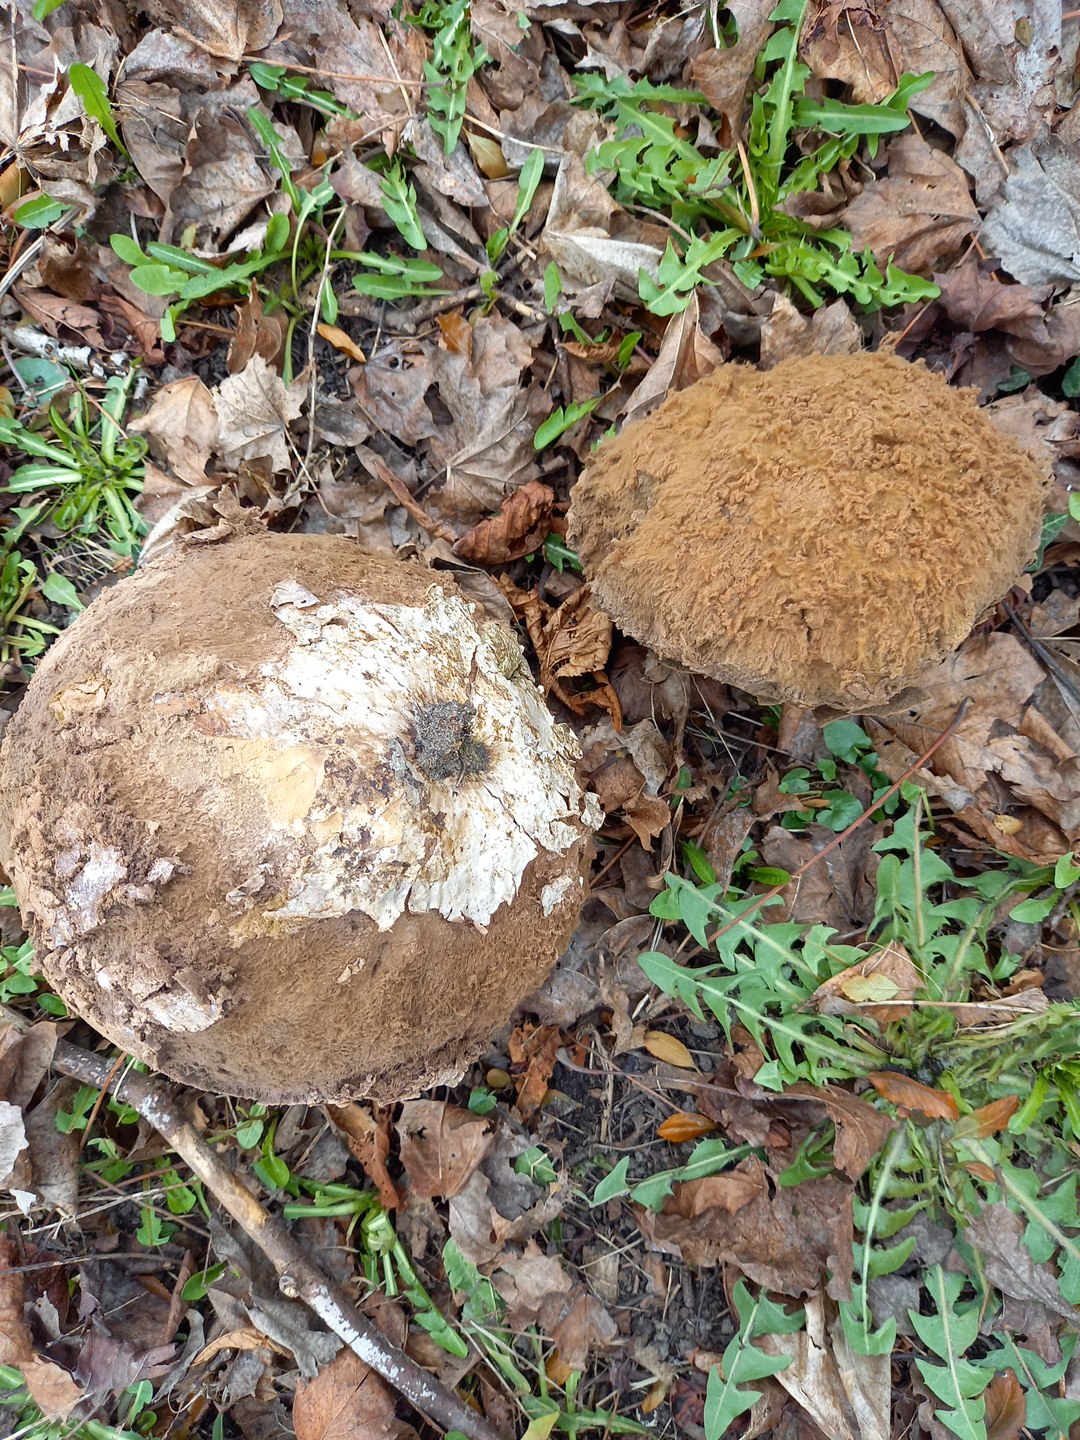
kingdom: Fungi
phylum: Basidiomycota
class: Agaricomycetes
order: Agaricales
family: Lycoperdaceae
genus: Calvatia
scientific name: Calvatia gigantea
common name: kæmpestøvbold
